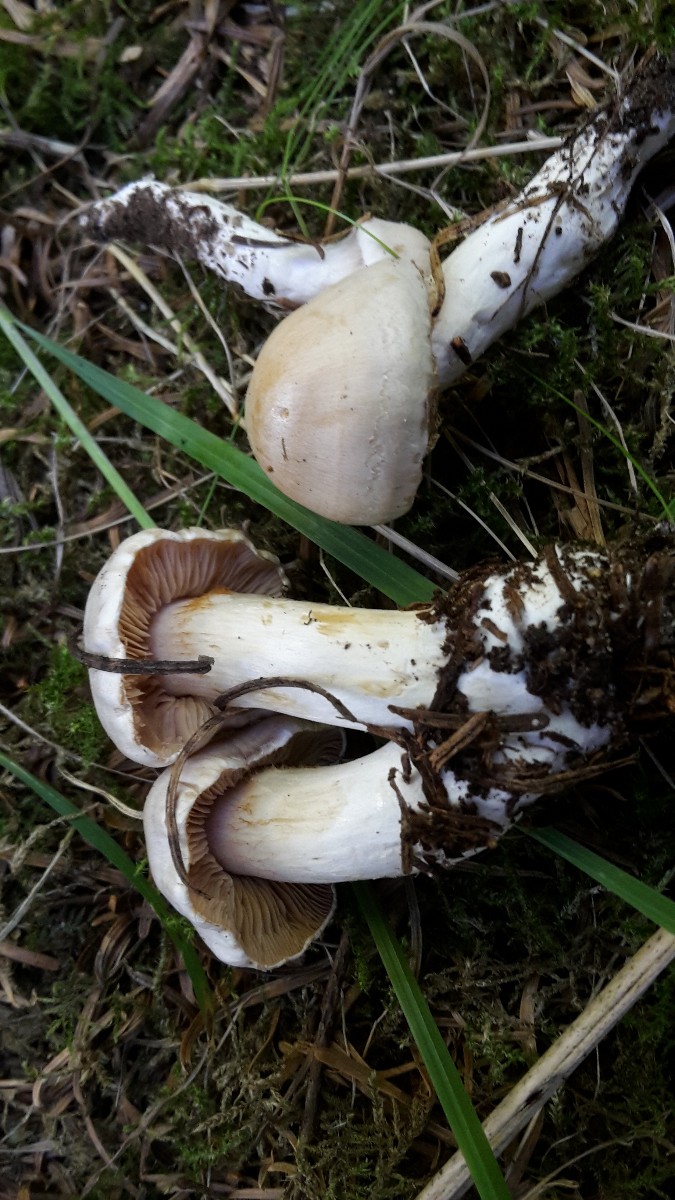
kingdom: Fungi
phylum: Basidiomycota
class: Agaricomycetes
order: Agaricales
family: Cortinariaceae
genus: Thaxterogaster
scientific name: Thaxterogaster leucoluteolus
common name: isabella slørhat
